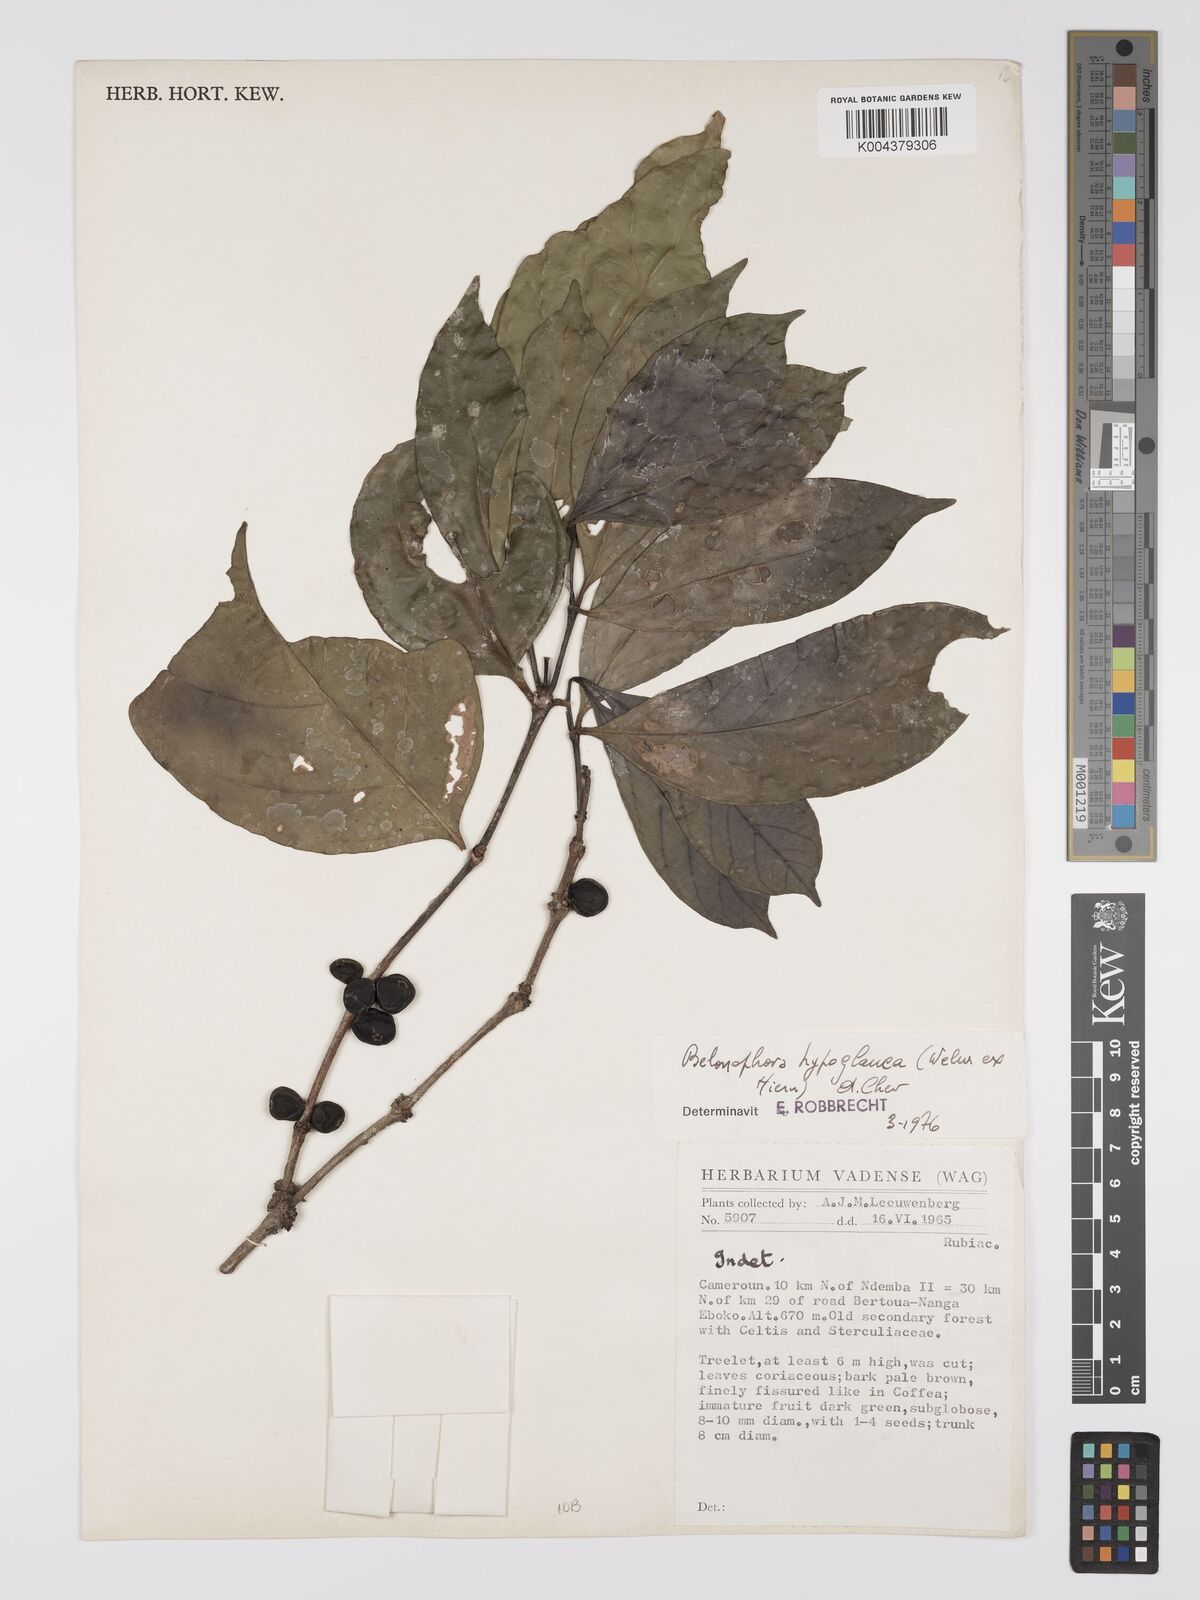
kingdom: Plantae
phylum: Tracheophyta
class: Magnoliopsida
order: Gentianales
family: Rubiaceae
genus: Belonophora
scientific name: Belonophora coffeoides
